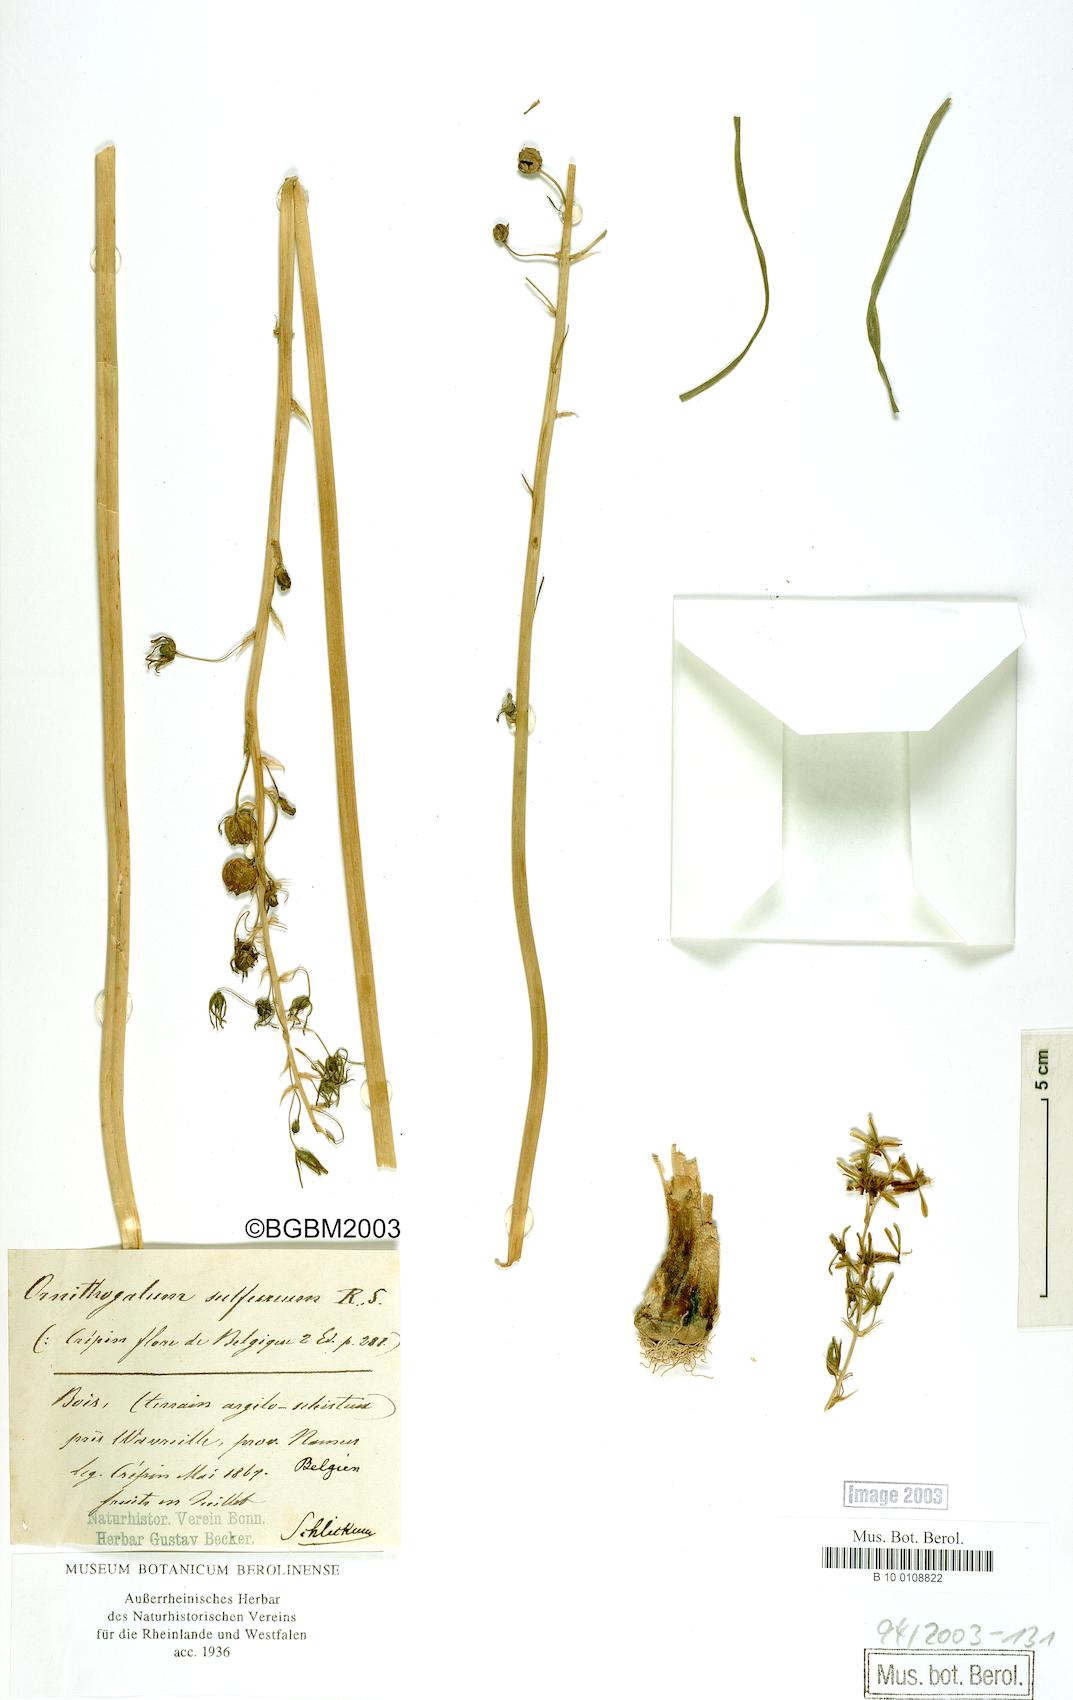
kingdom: Plantae
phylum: Tracheophyta
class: Liliopsida
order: Asparagales
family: Asparagaceae
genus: Ornithogalum
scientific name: Ornithogalum sulfureum
